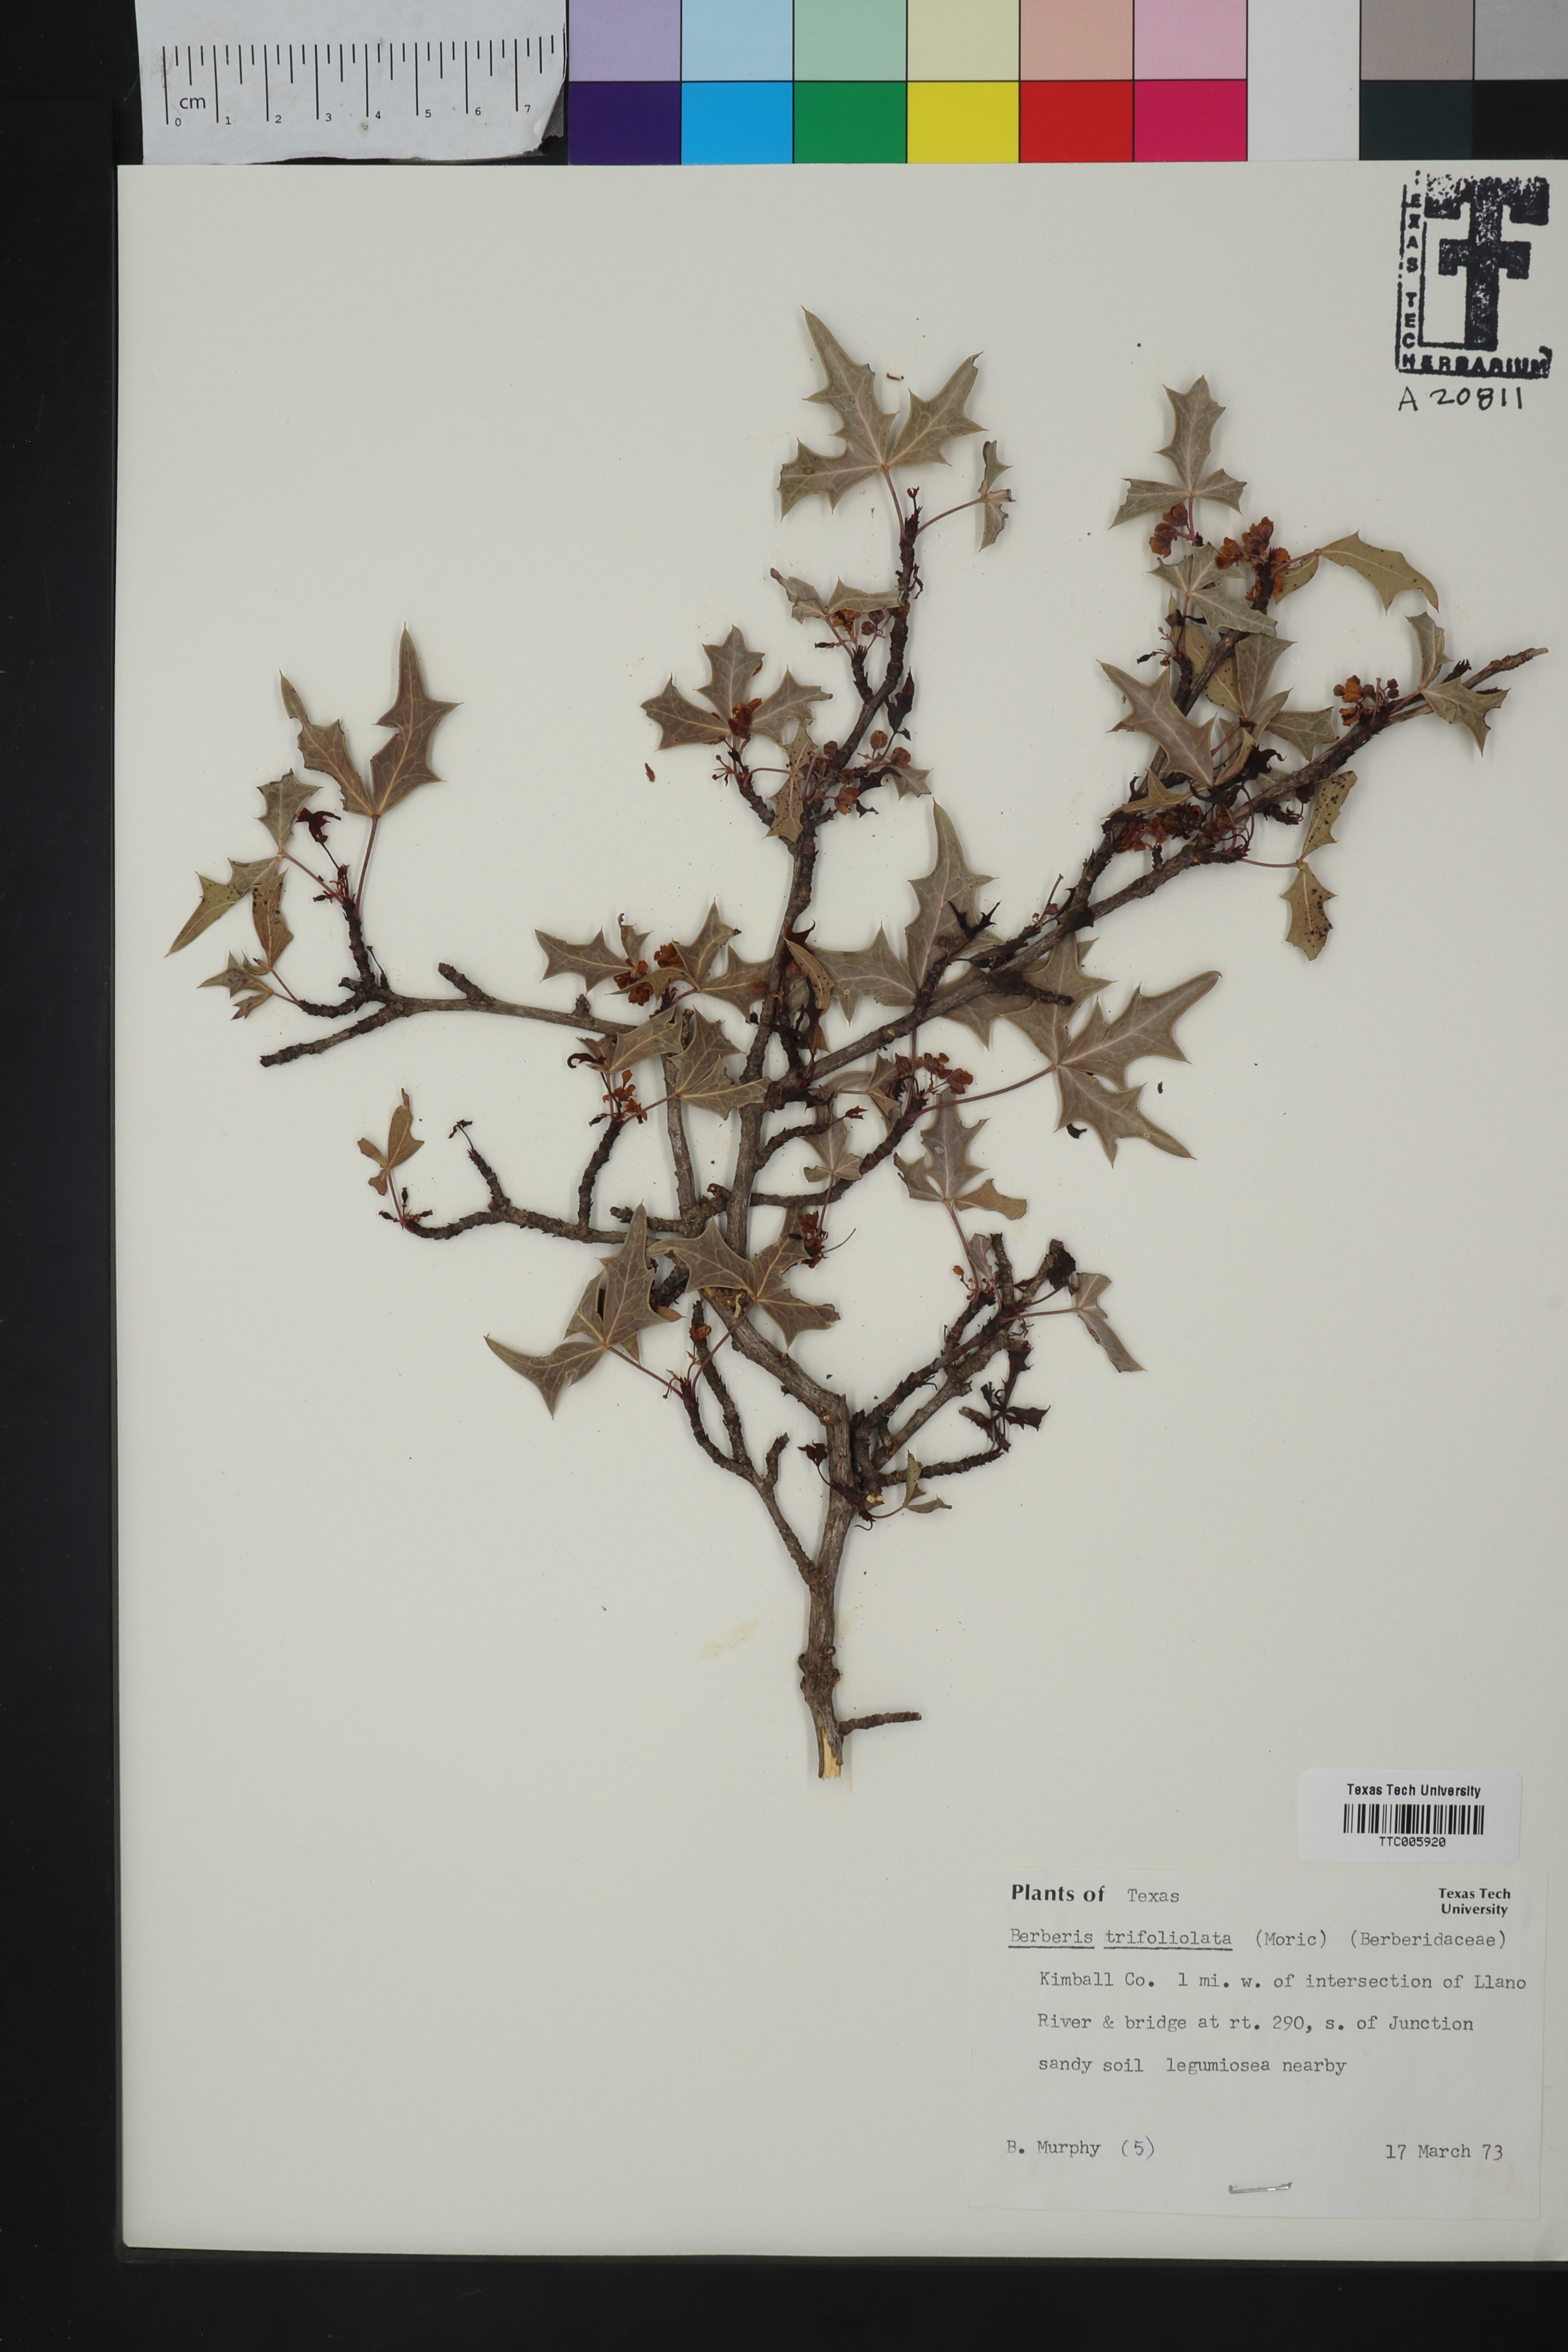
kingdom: Plantae
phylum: Tracheophyta
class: Magnoliopsida
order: Ranunculales
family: Berberidaceae
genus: Alloberberis
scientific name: Alloberberis fremontii
